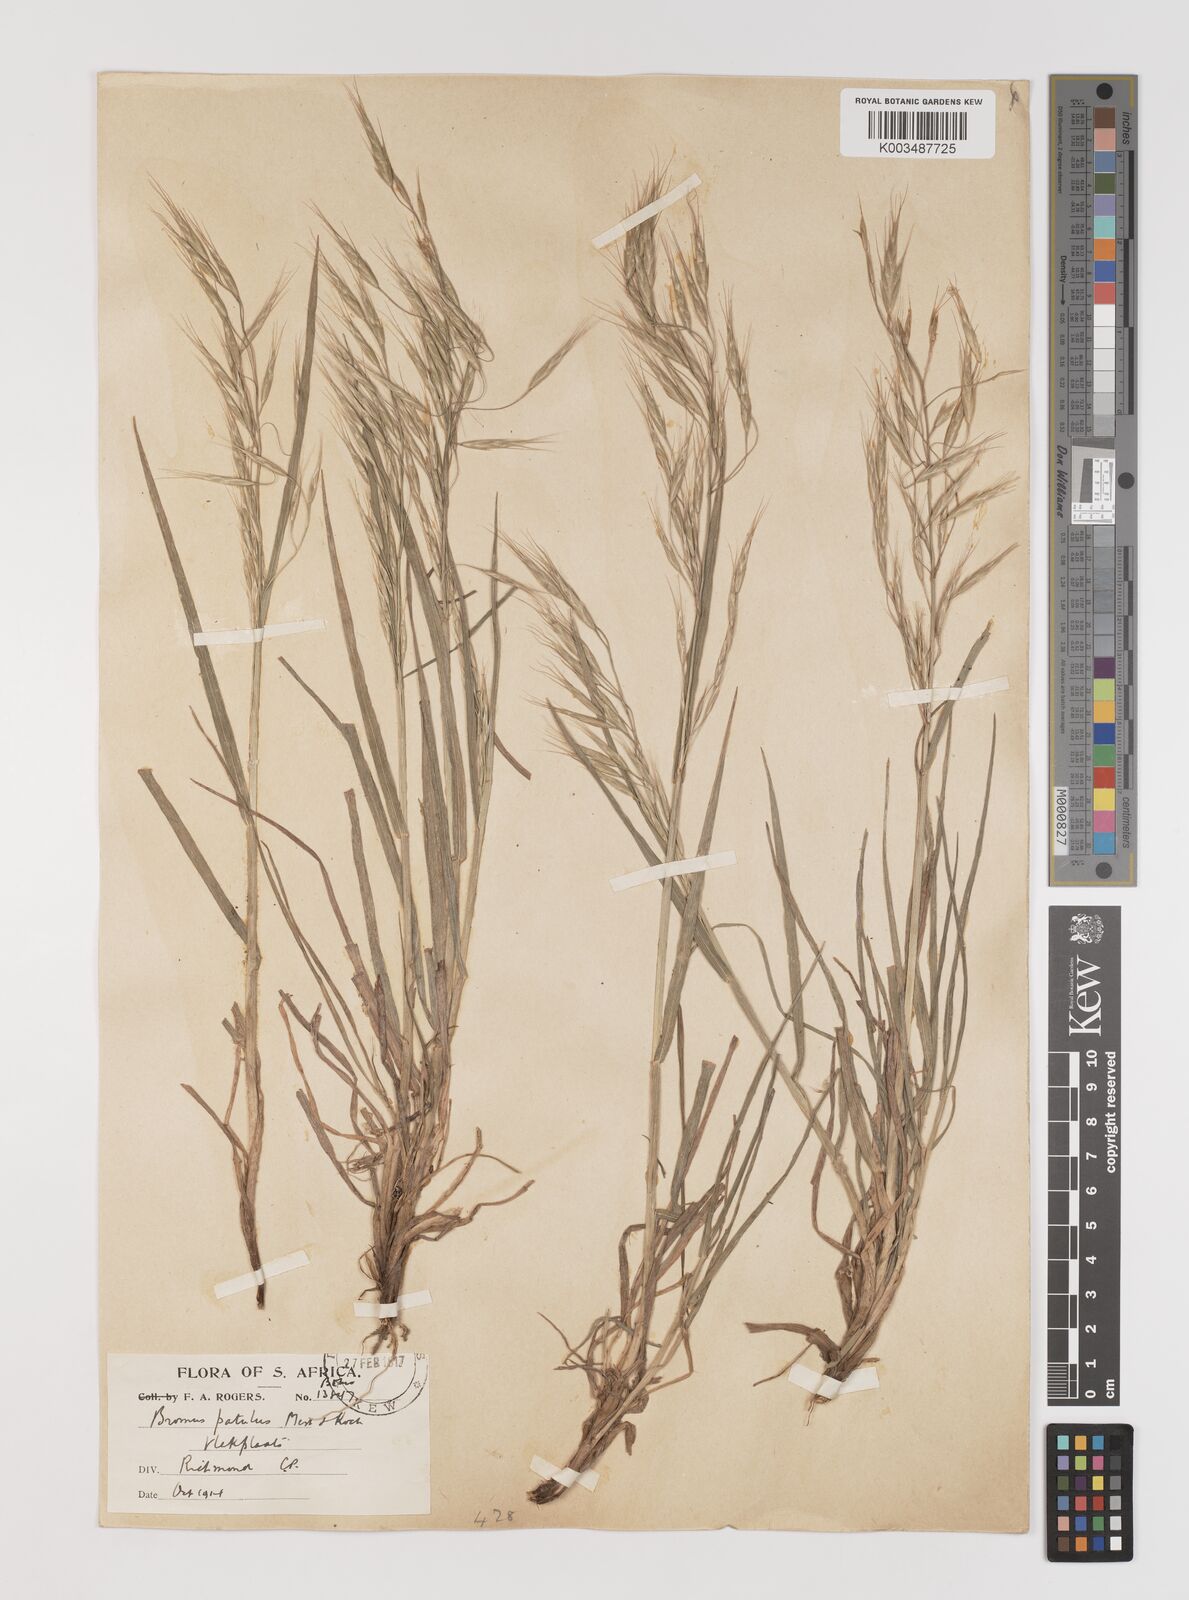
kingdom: Plantae
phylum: Tracheophyta
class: Liliopsida
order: Poales
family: Poaceae
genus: Bromus
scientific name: Bromus pectinatus
